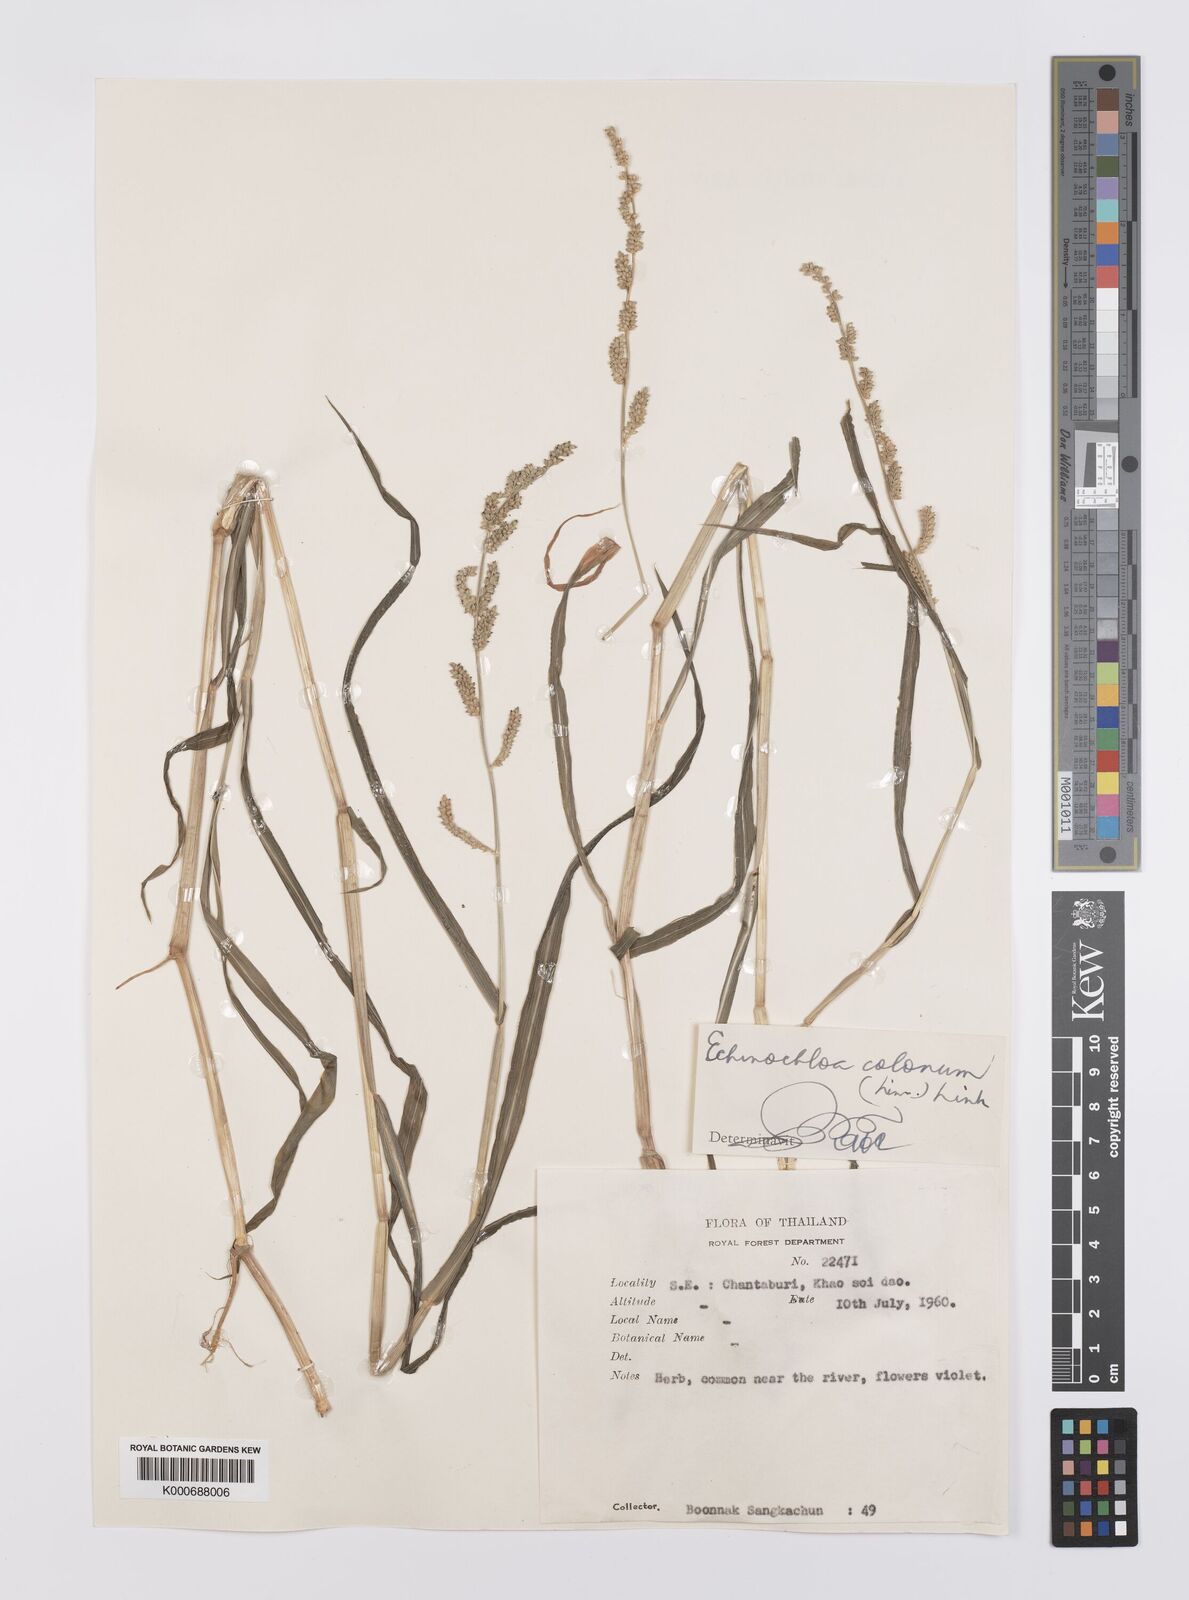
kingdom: Plantae
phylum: Tracheophyta
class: Liliopsida
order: Poales
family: Poaceae
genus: Echinochloa
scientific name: Echinochloa colonum
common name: Jungle rice
